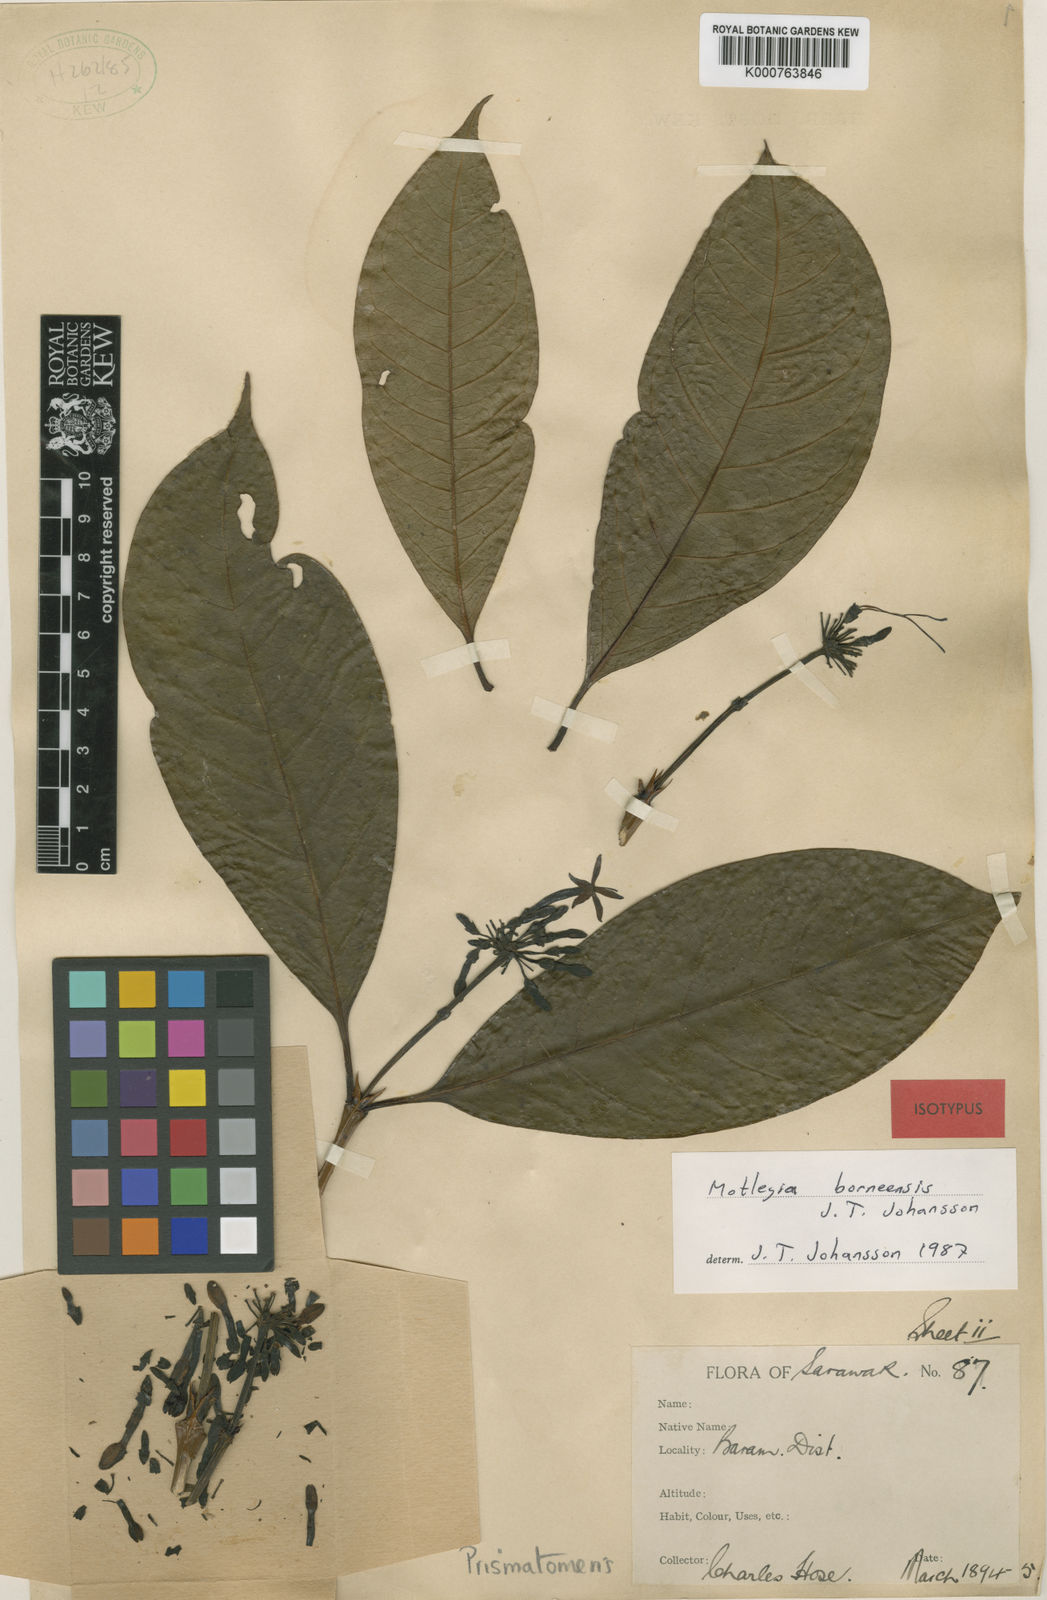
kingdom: Plantae
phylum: Tracheophyta
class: Magnoliopsida
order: Gentianales
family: Rubiaceae
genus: Prismatomeris
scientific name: Prismatomeris borneensis
